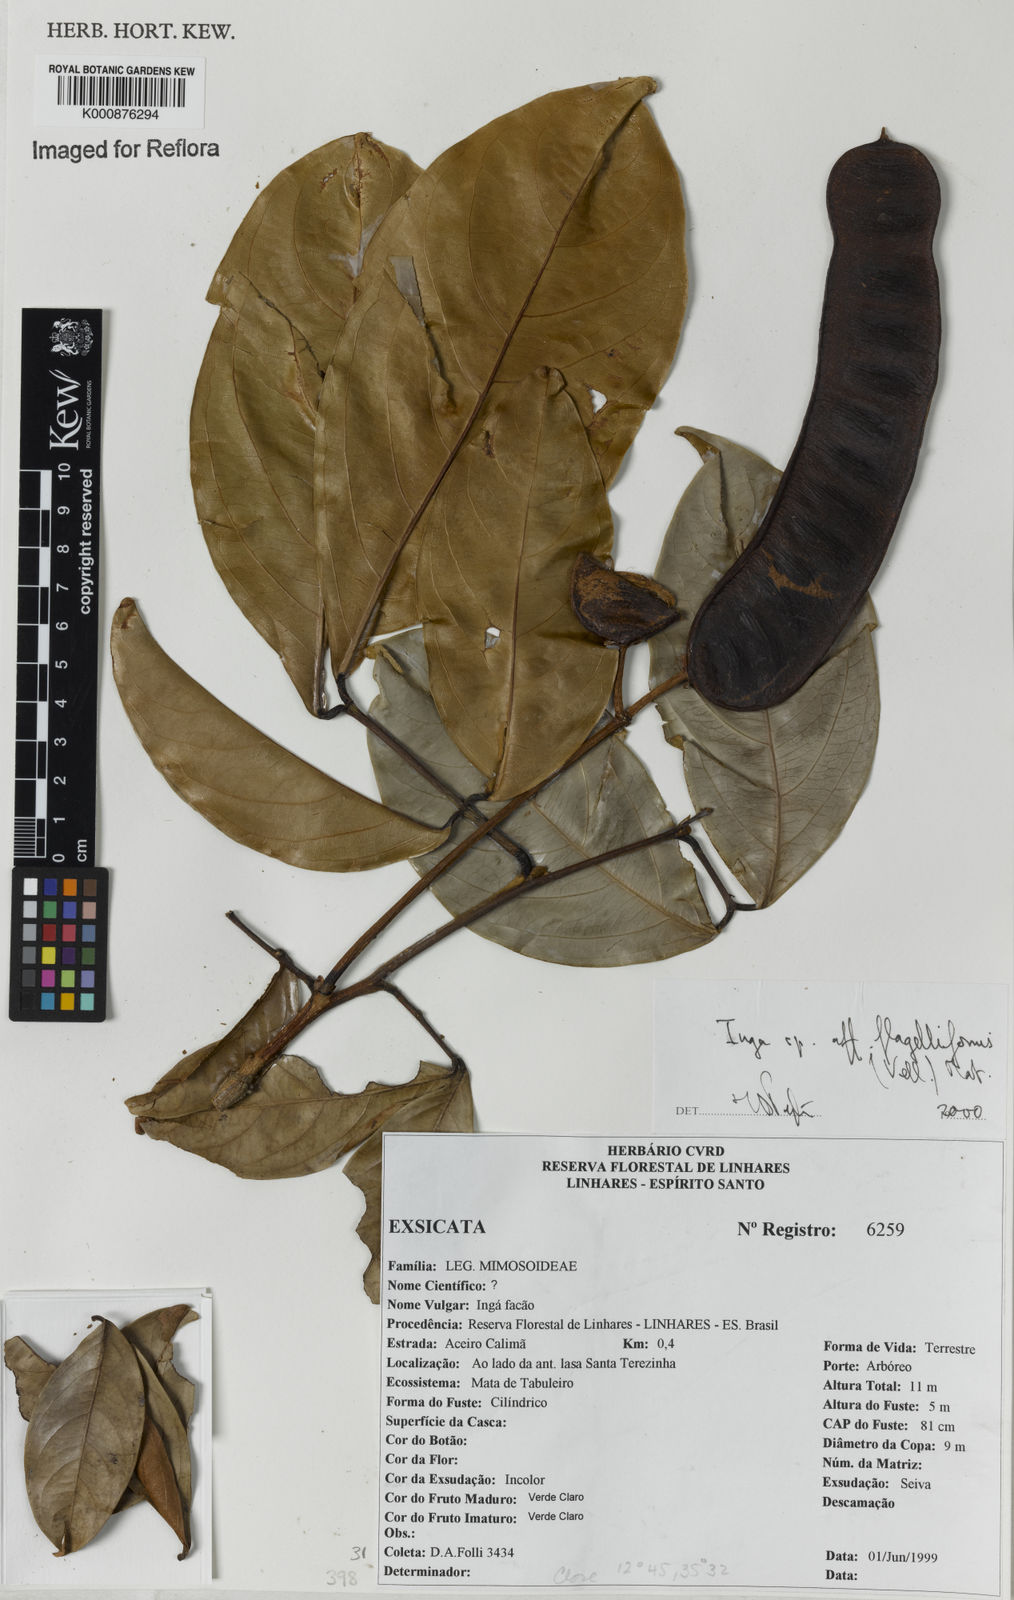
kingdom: Plantae
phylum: Tracheophyta
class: Magnoliopsida
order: Fabales
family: Fabaceae
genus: Inga
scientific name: Inga flagelliformis
